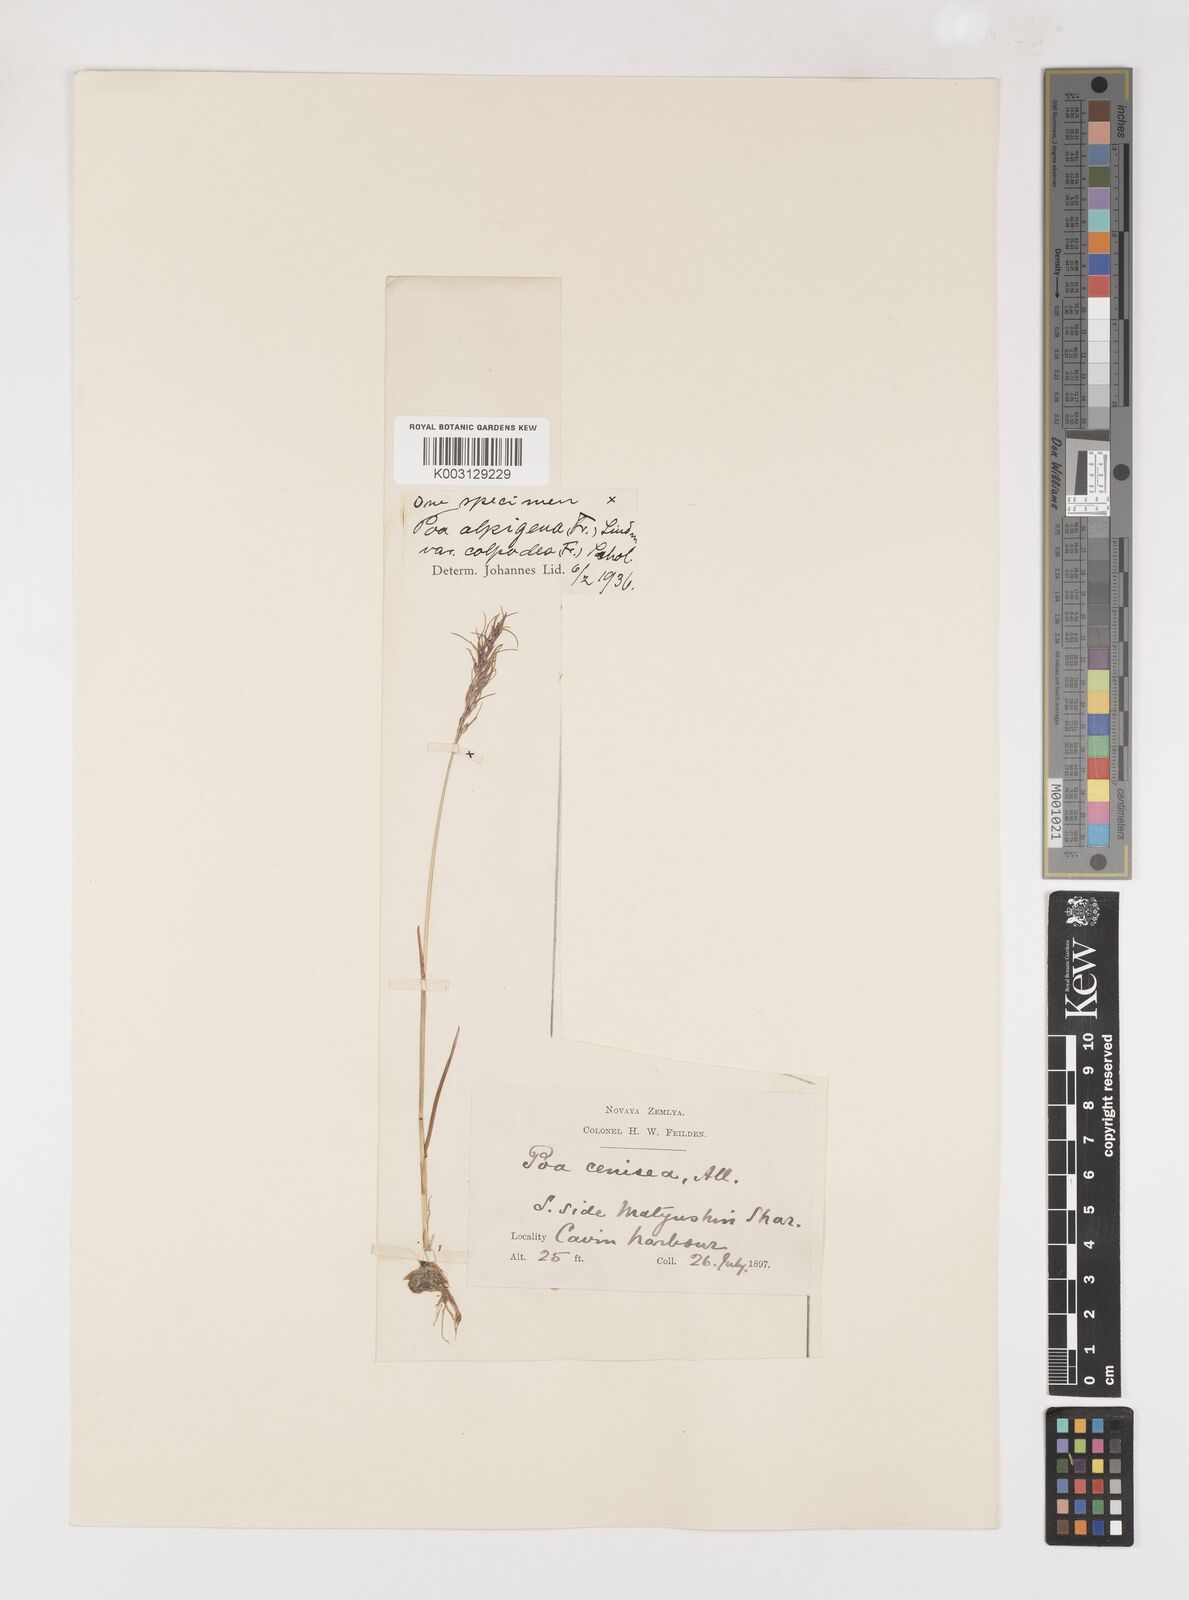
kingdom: Plantae
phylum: Tracheophyta
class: Liliopsida
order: Poales
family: Poaceae
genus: Poa
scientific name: Poa lindebergii
